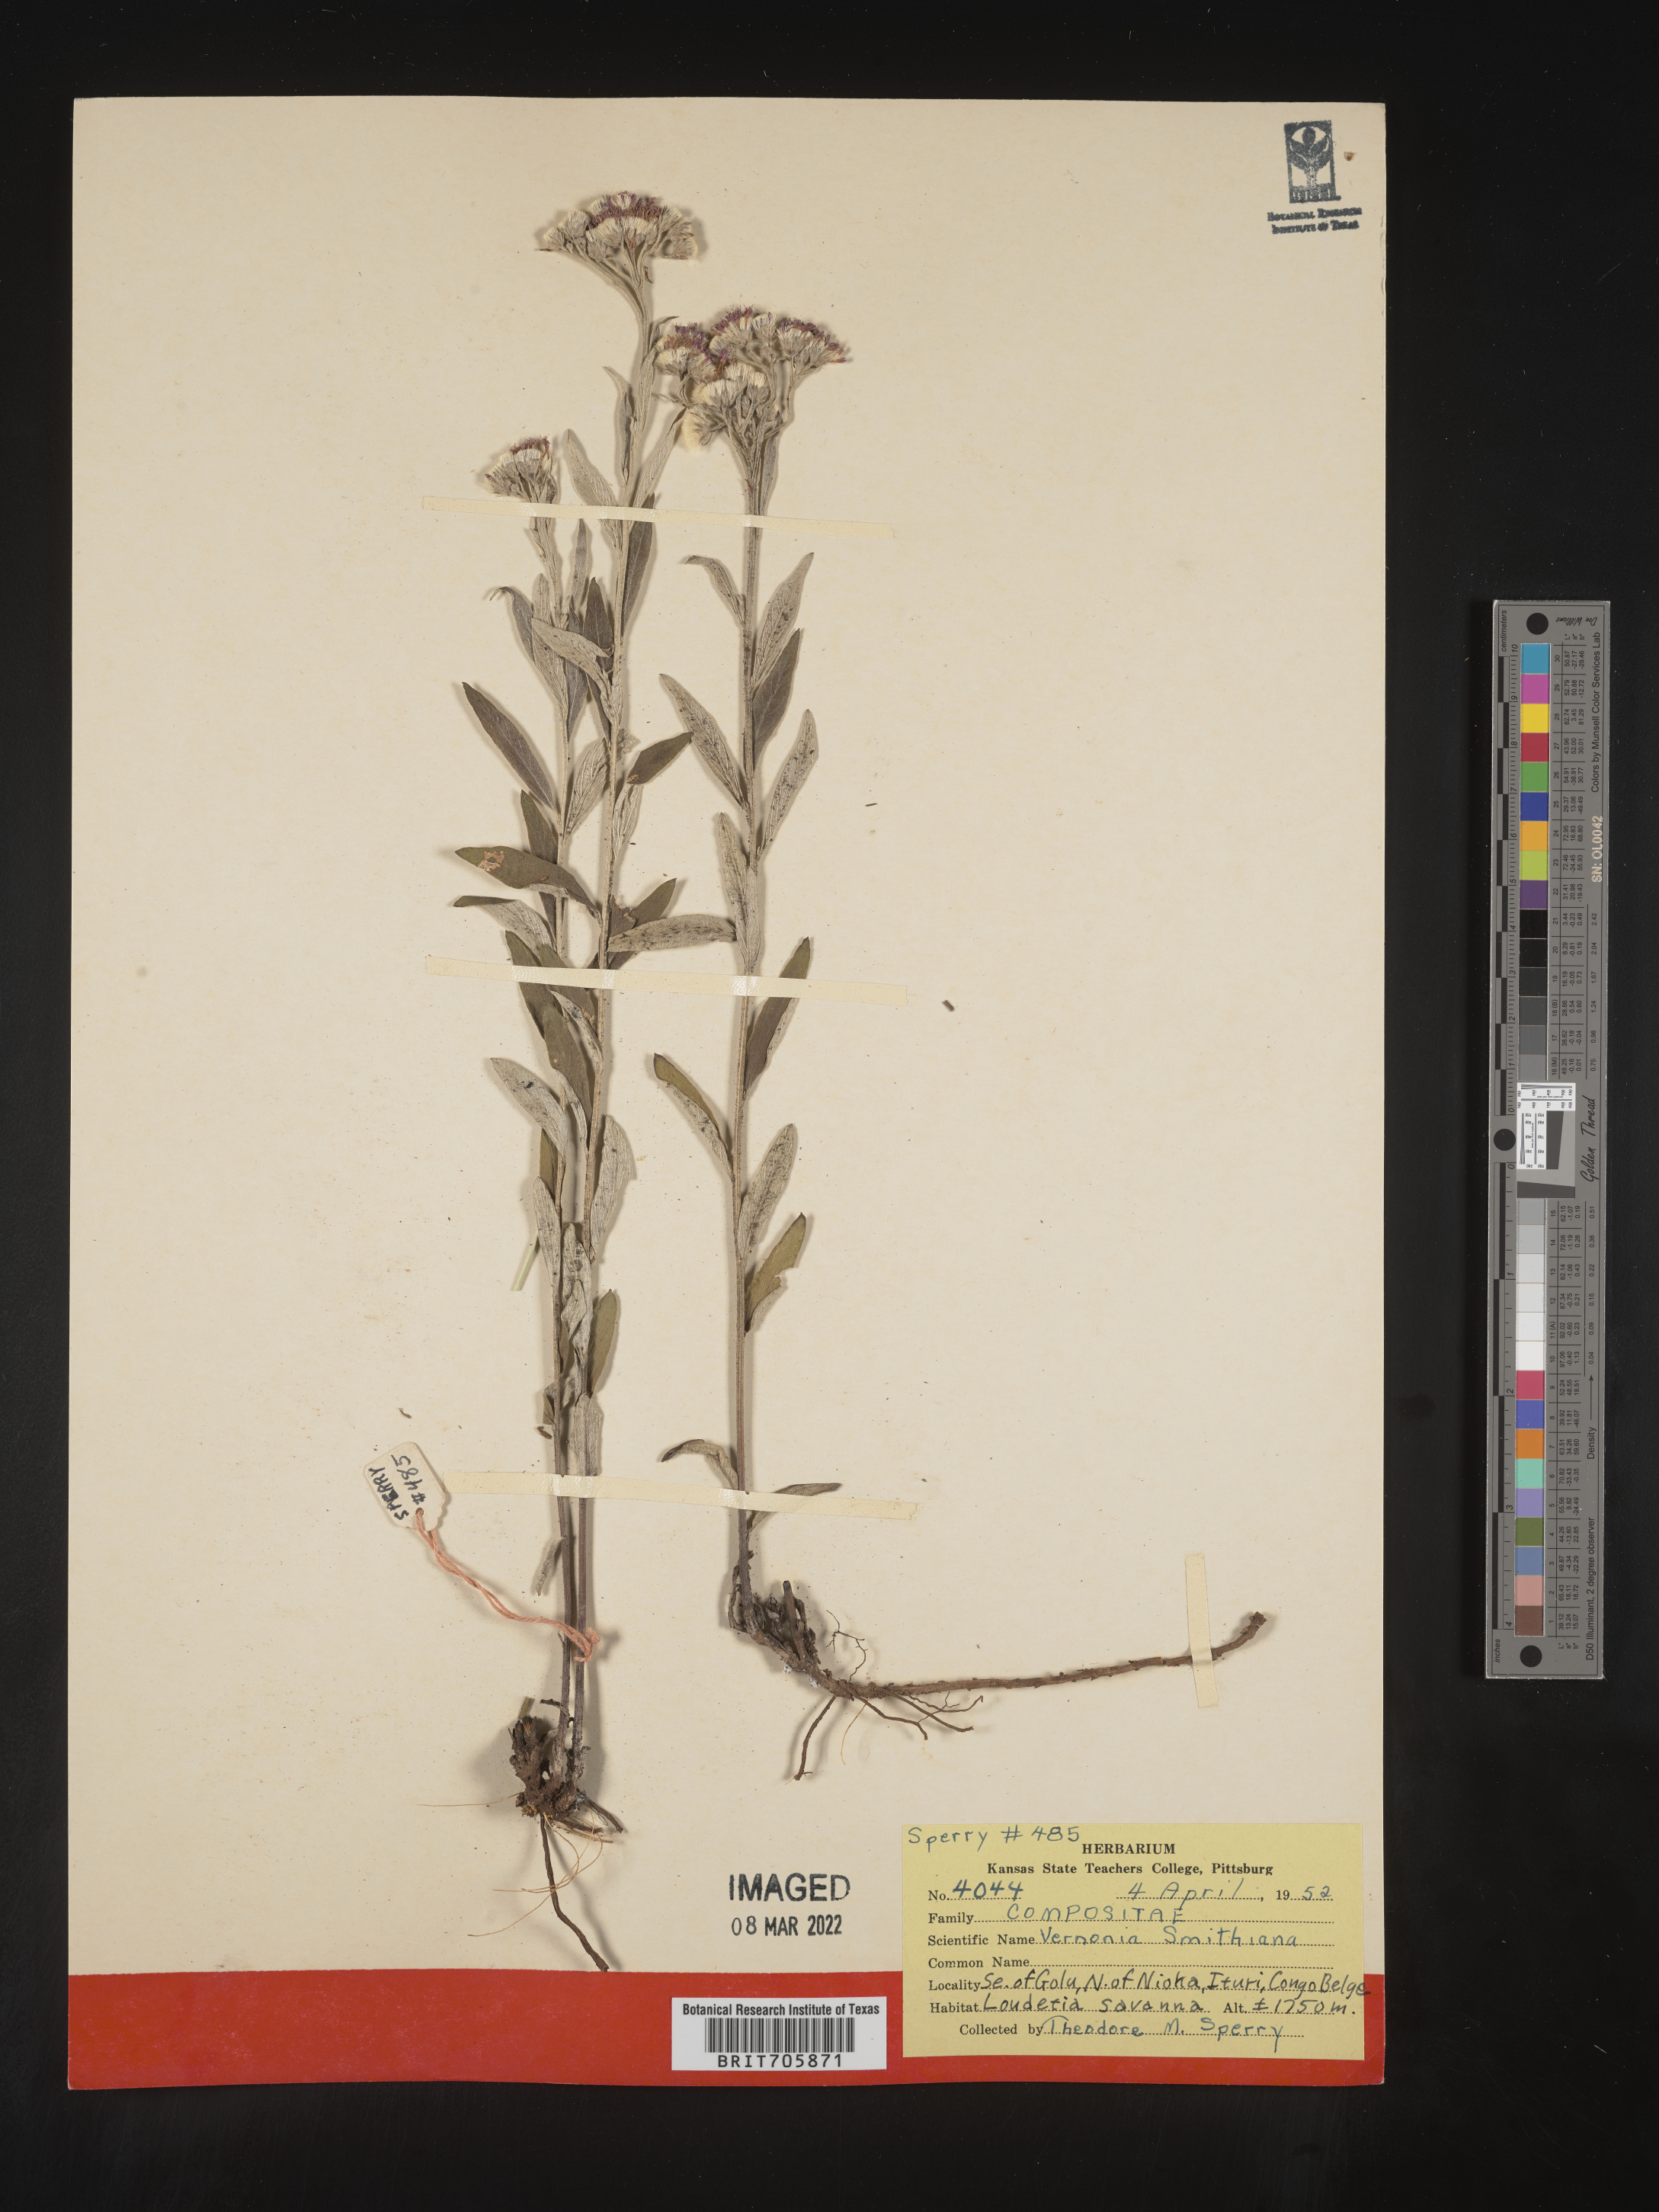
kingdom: Plantae
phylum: Tracheophyta
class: Magnoliopsida
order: Asterales
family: Asteraceae
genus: Vernonia
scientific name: Vernonia
